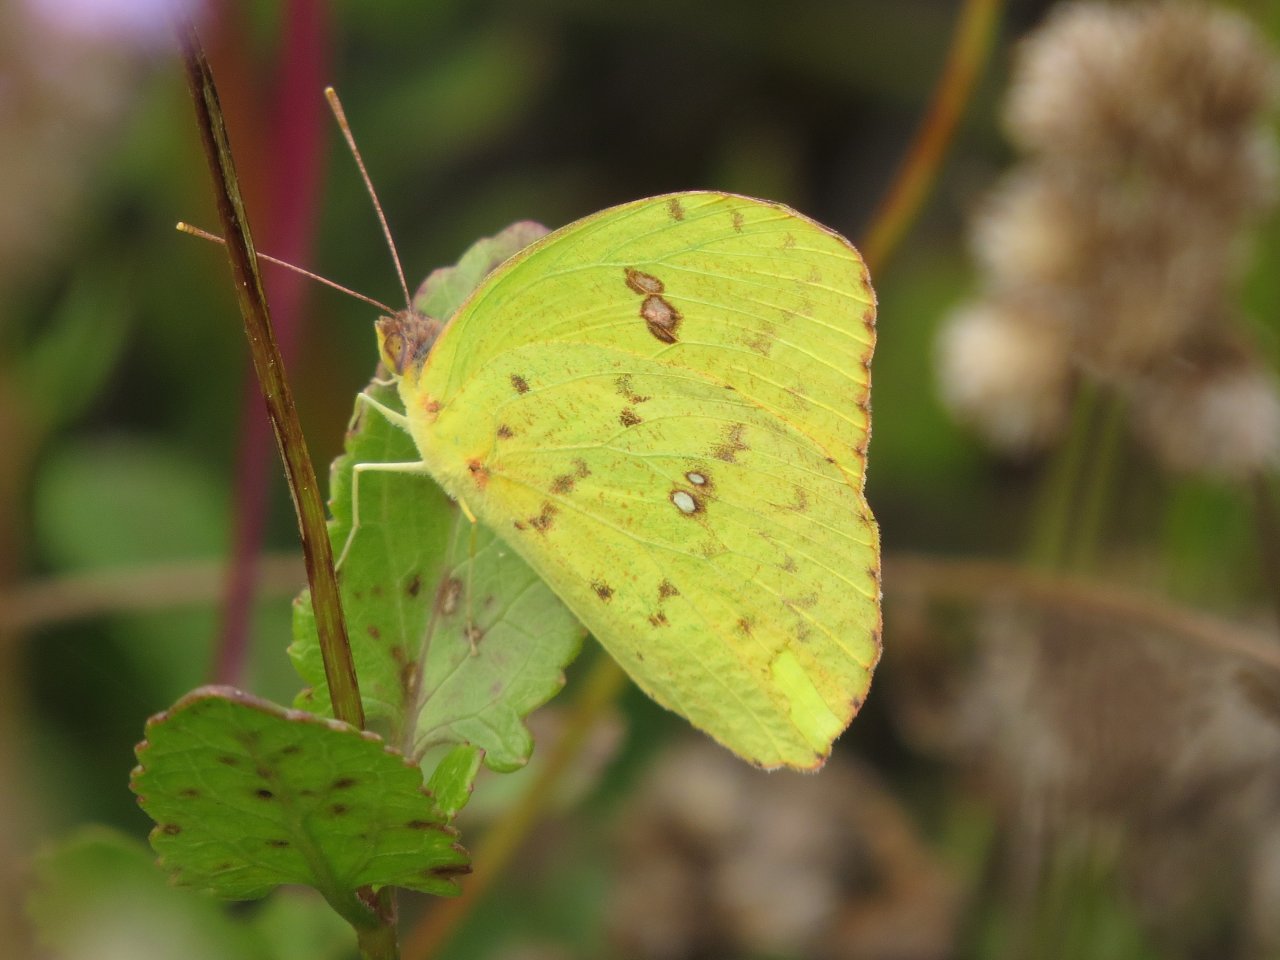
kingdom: Animalia
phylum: Arthropoda
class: Insecta
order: Lepidoptera
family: Pieridae
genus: Phoebis
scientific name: Phoebis sennae
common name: Cloudless Sulphur
